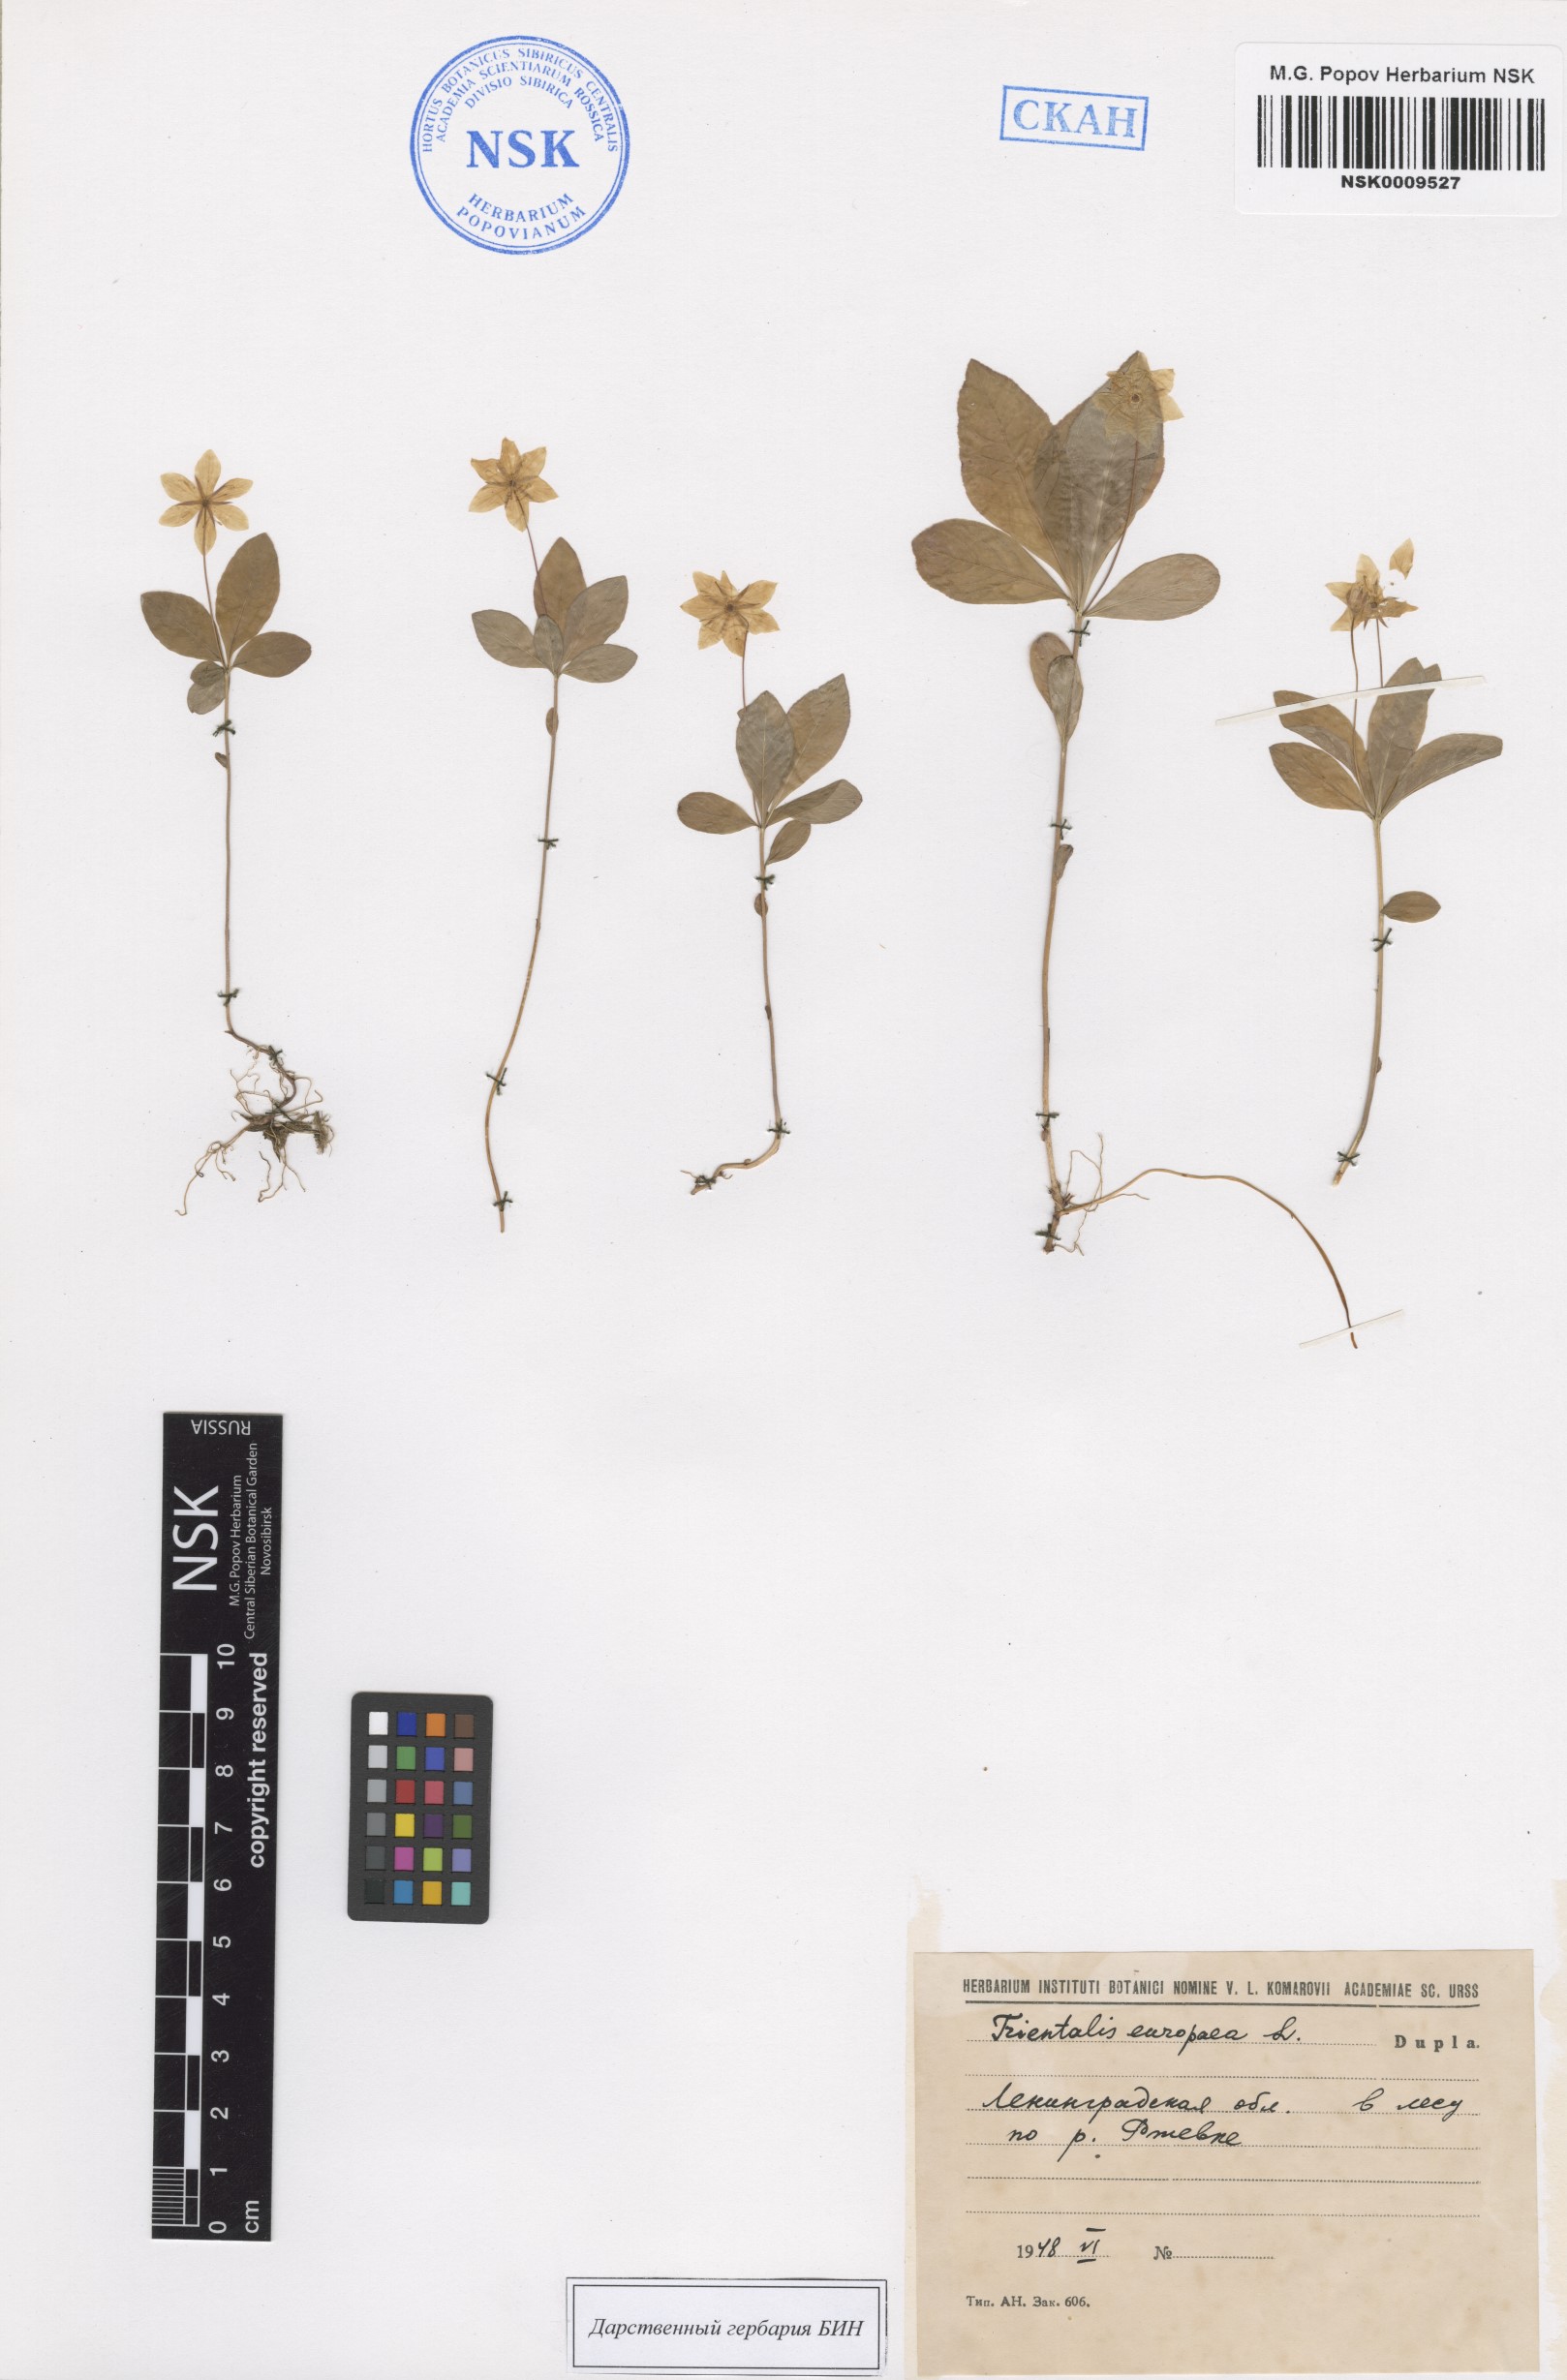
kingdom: Plantae
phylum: Tracheophyta
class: Magnoliopsida
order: Ericales
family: Primulaceae
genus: Lysimachia
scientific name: Lysimachia europaea
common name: Arctic starflower
